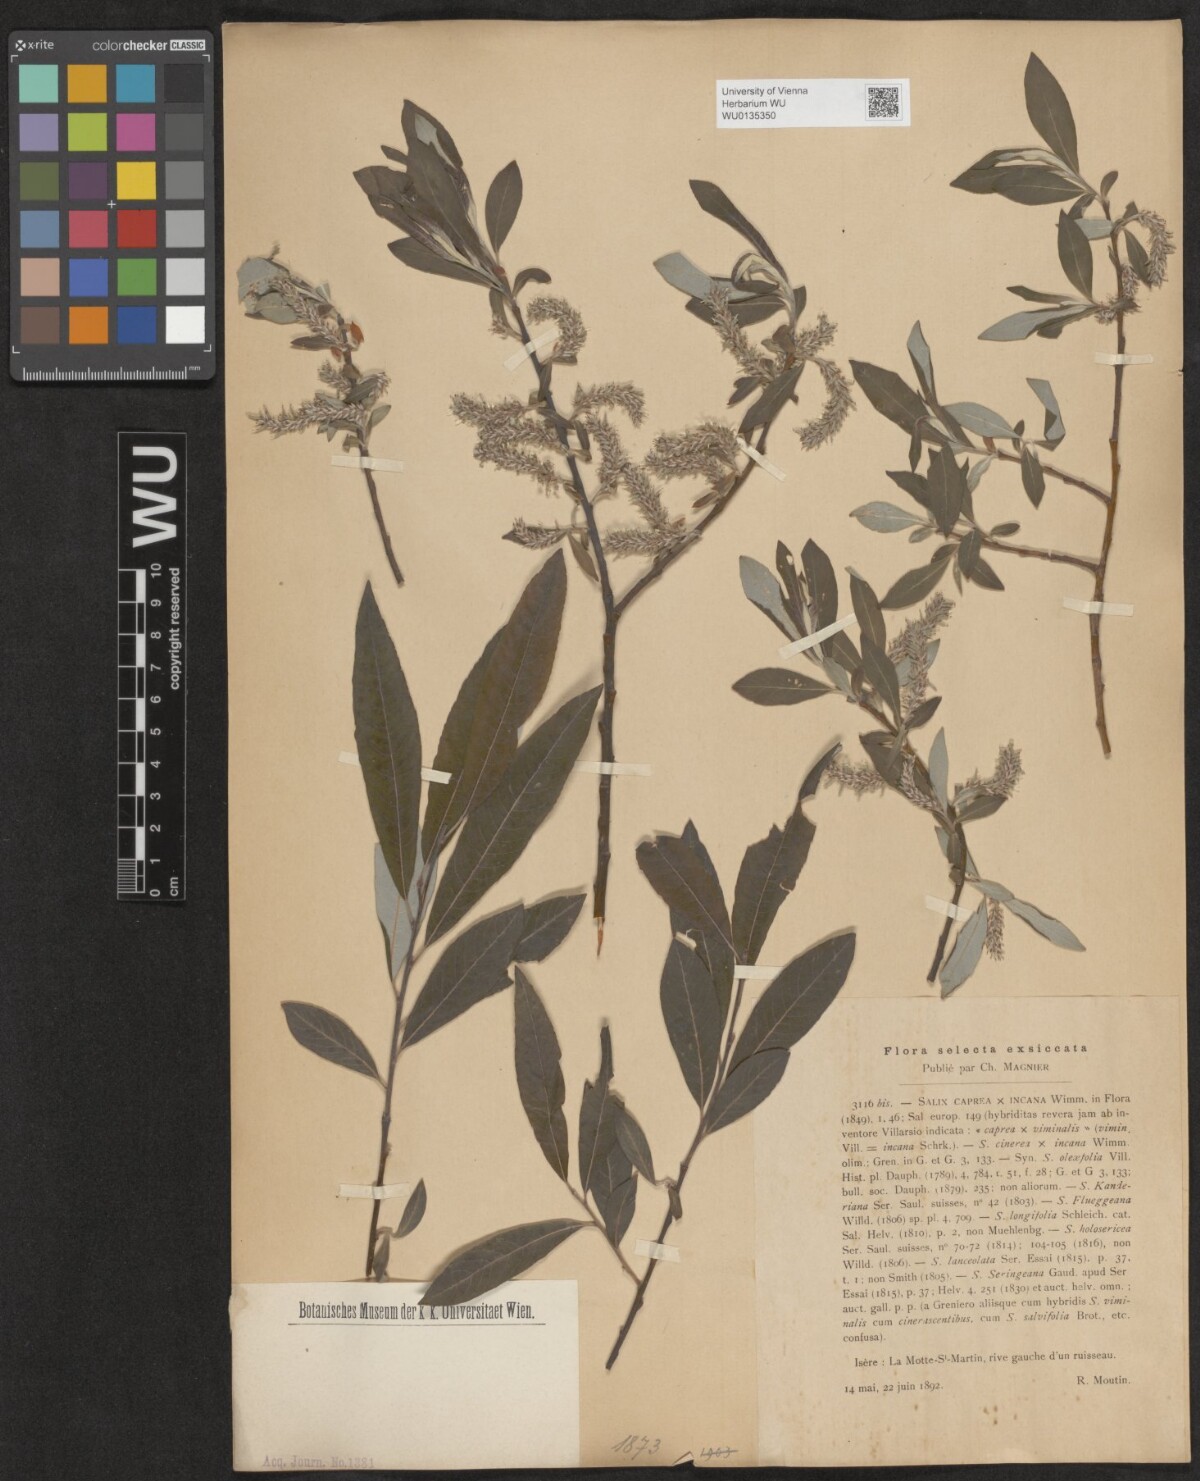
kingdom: Plantae
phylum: Tracheophyta
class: Magnoliopsida
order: Malpighiales
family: Salicaceae
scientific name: Salicaceae
